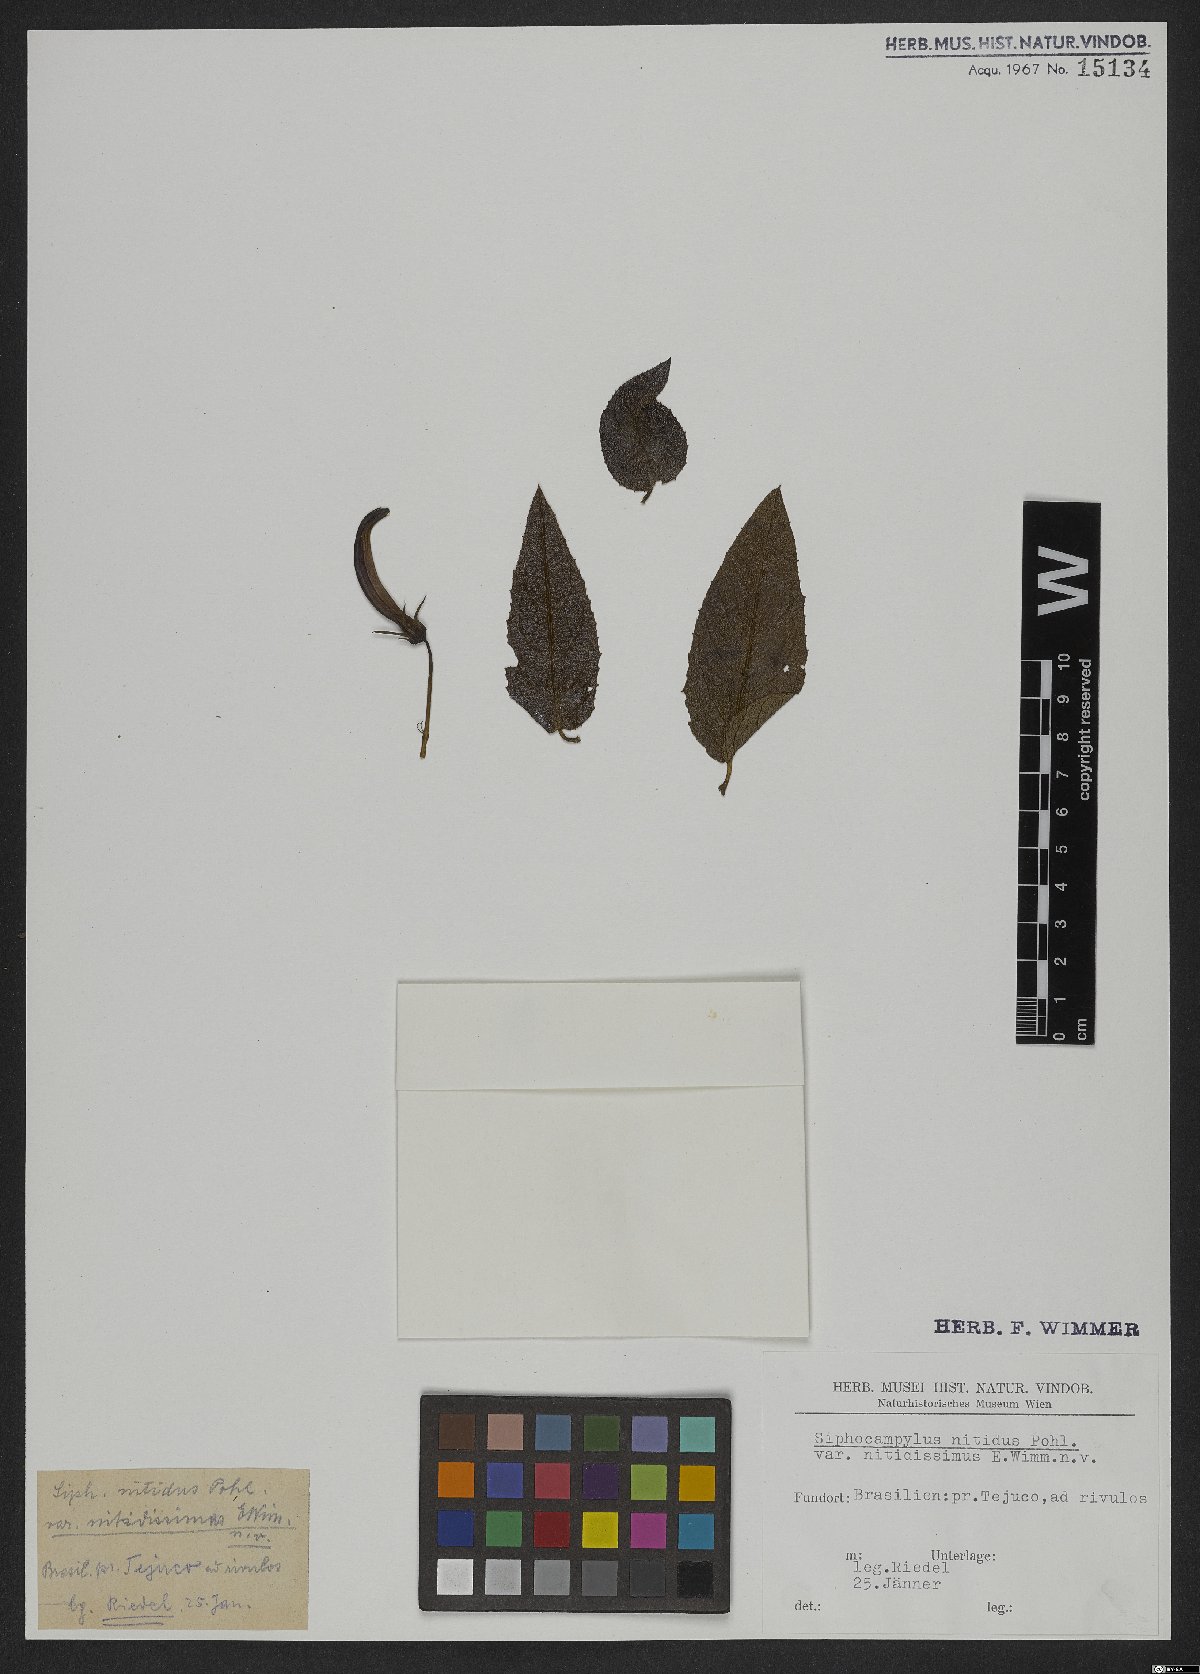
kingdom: Plantae
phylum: Tracheophyta
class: Magnoliopsida
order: Asterales
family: Campanulaceae
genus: Siphocampylus
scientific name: Siphocampylus nitidus
